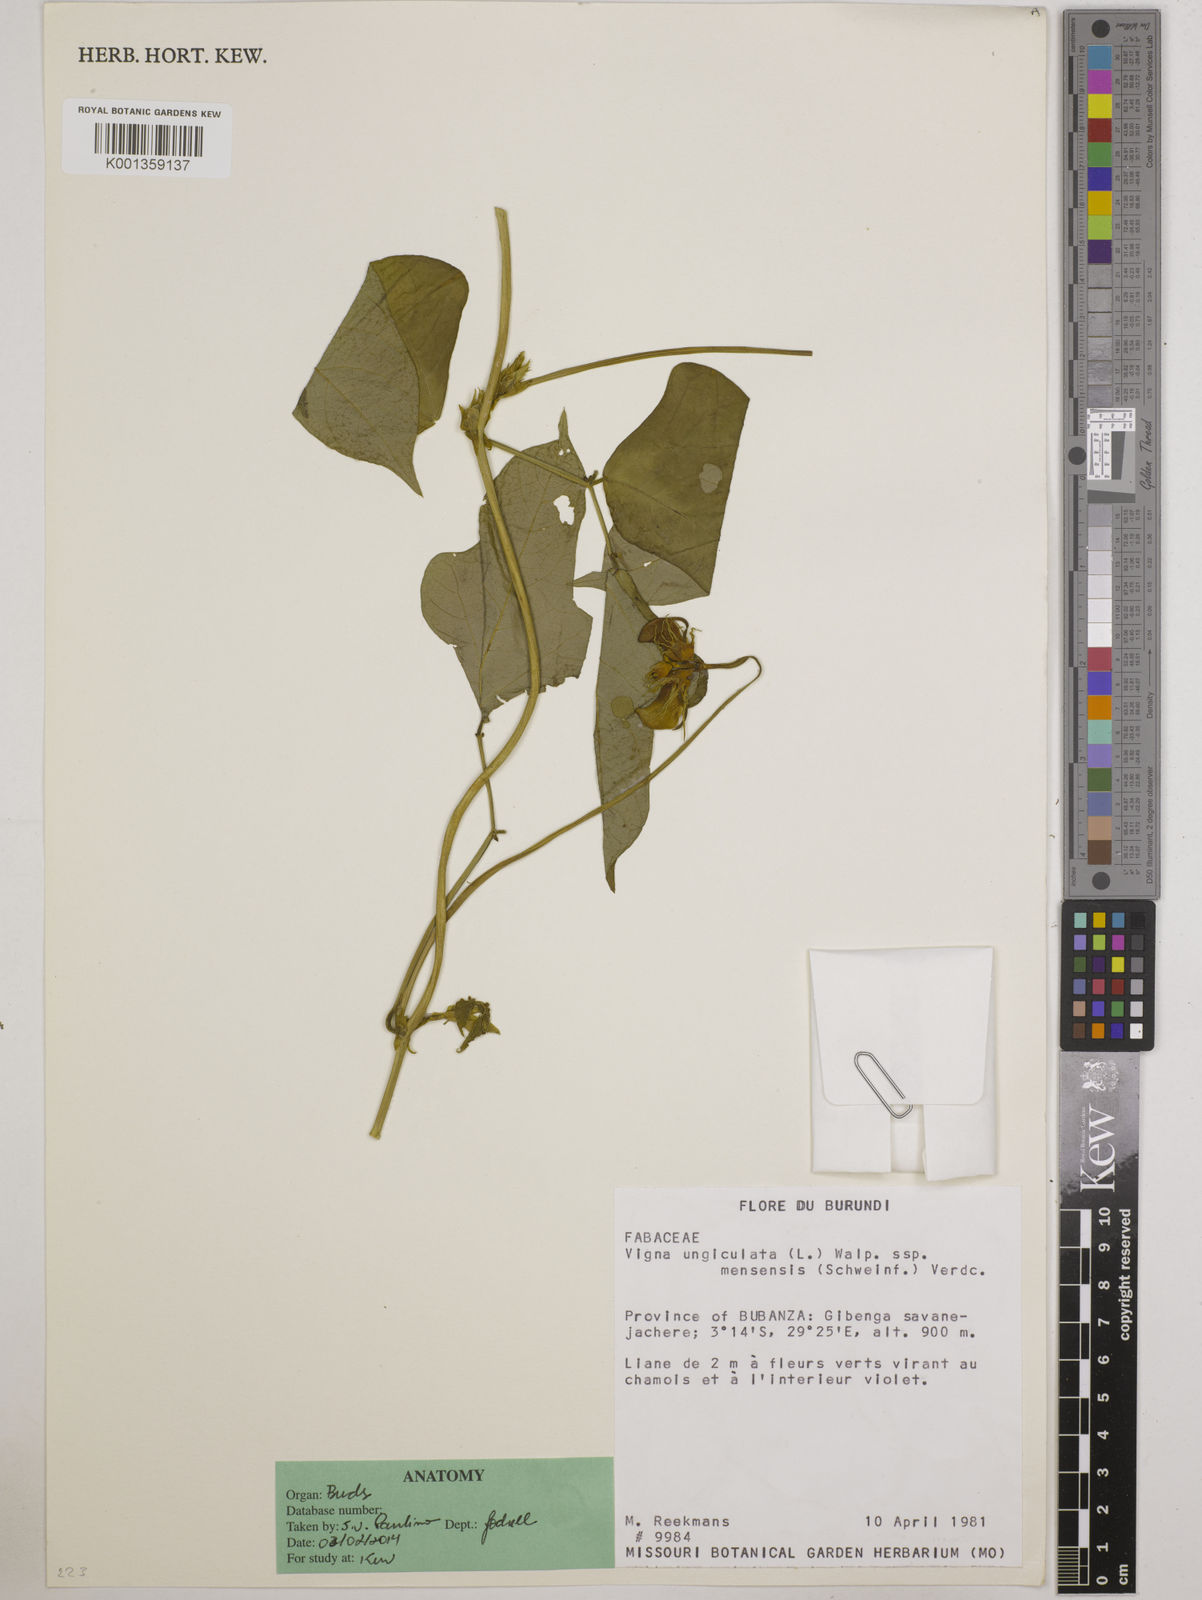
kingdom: Plantae
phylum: Tracheophyta
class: Magnoliopsida
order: Fabales
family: Fabaceae
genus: Vigna
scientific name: Vigna unguiculata
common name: Cowpea
